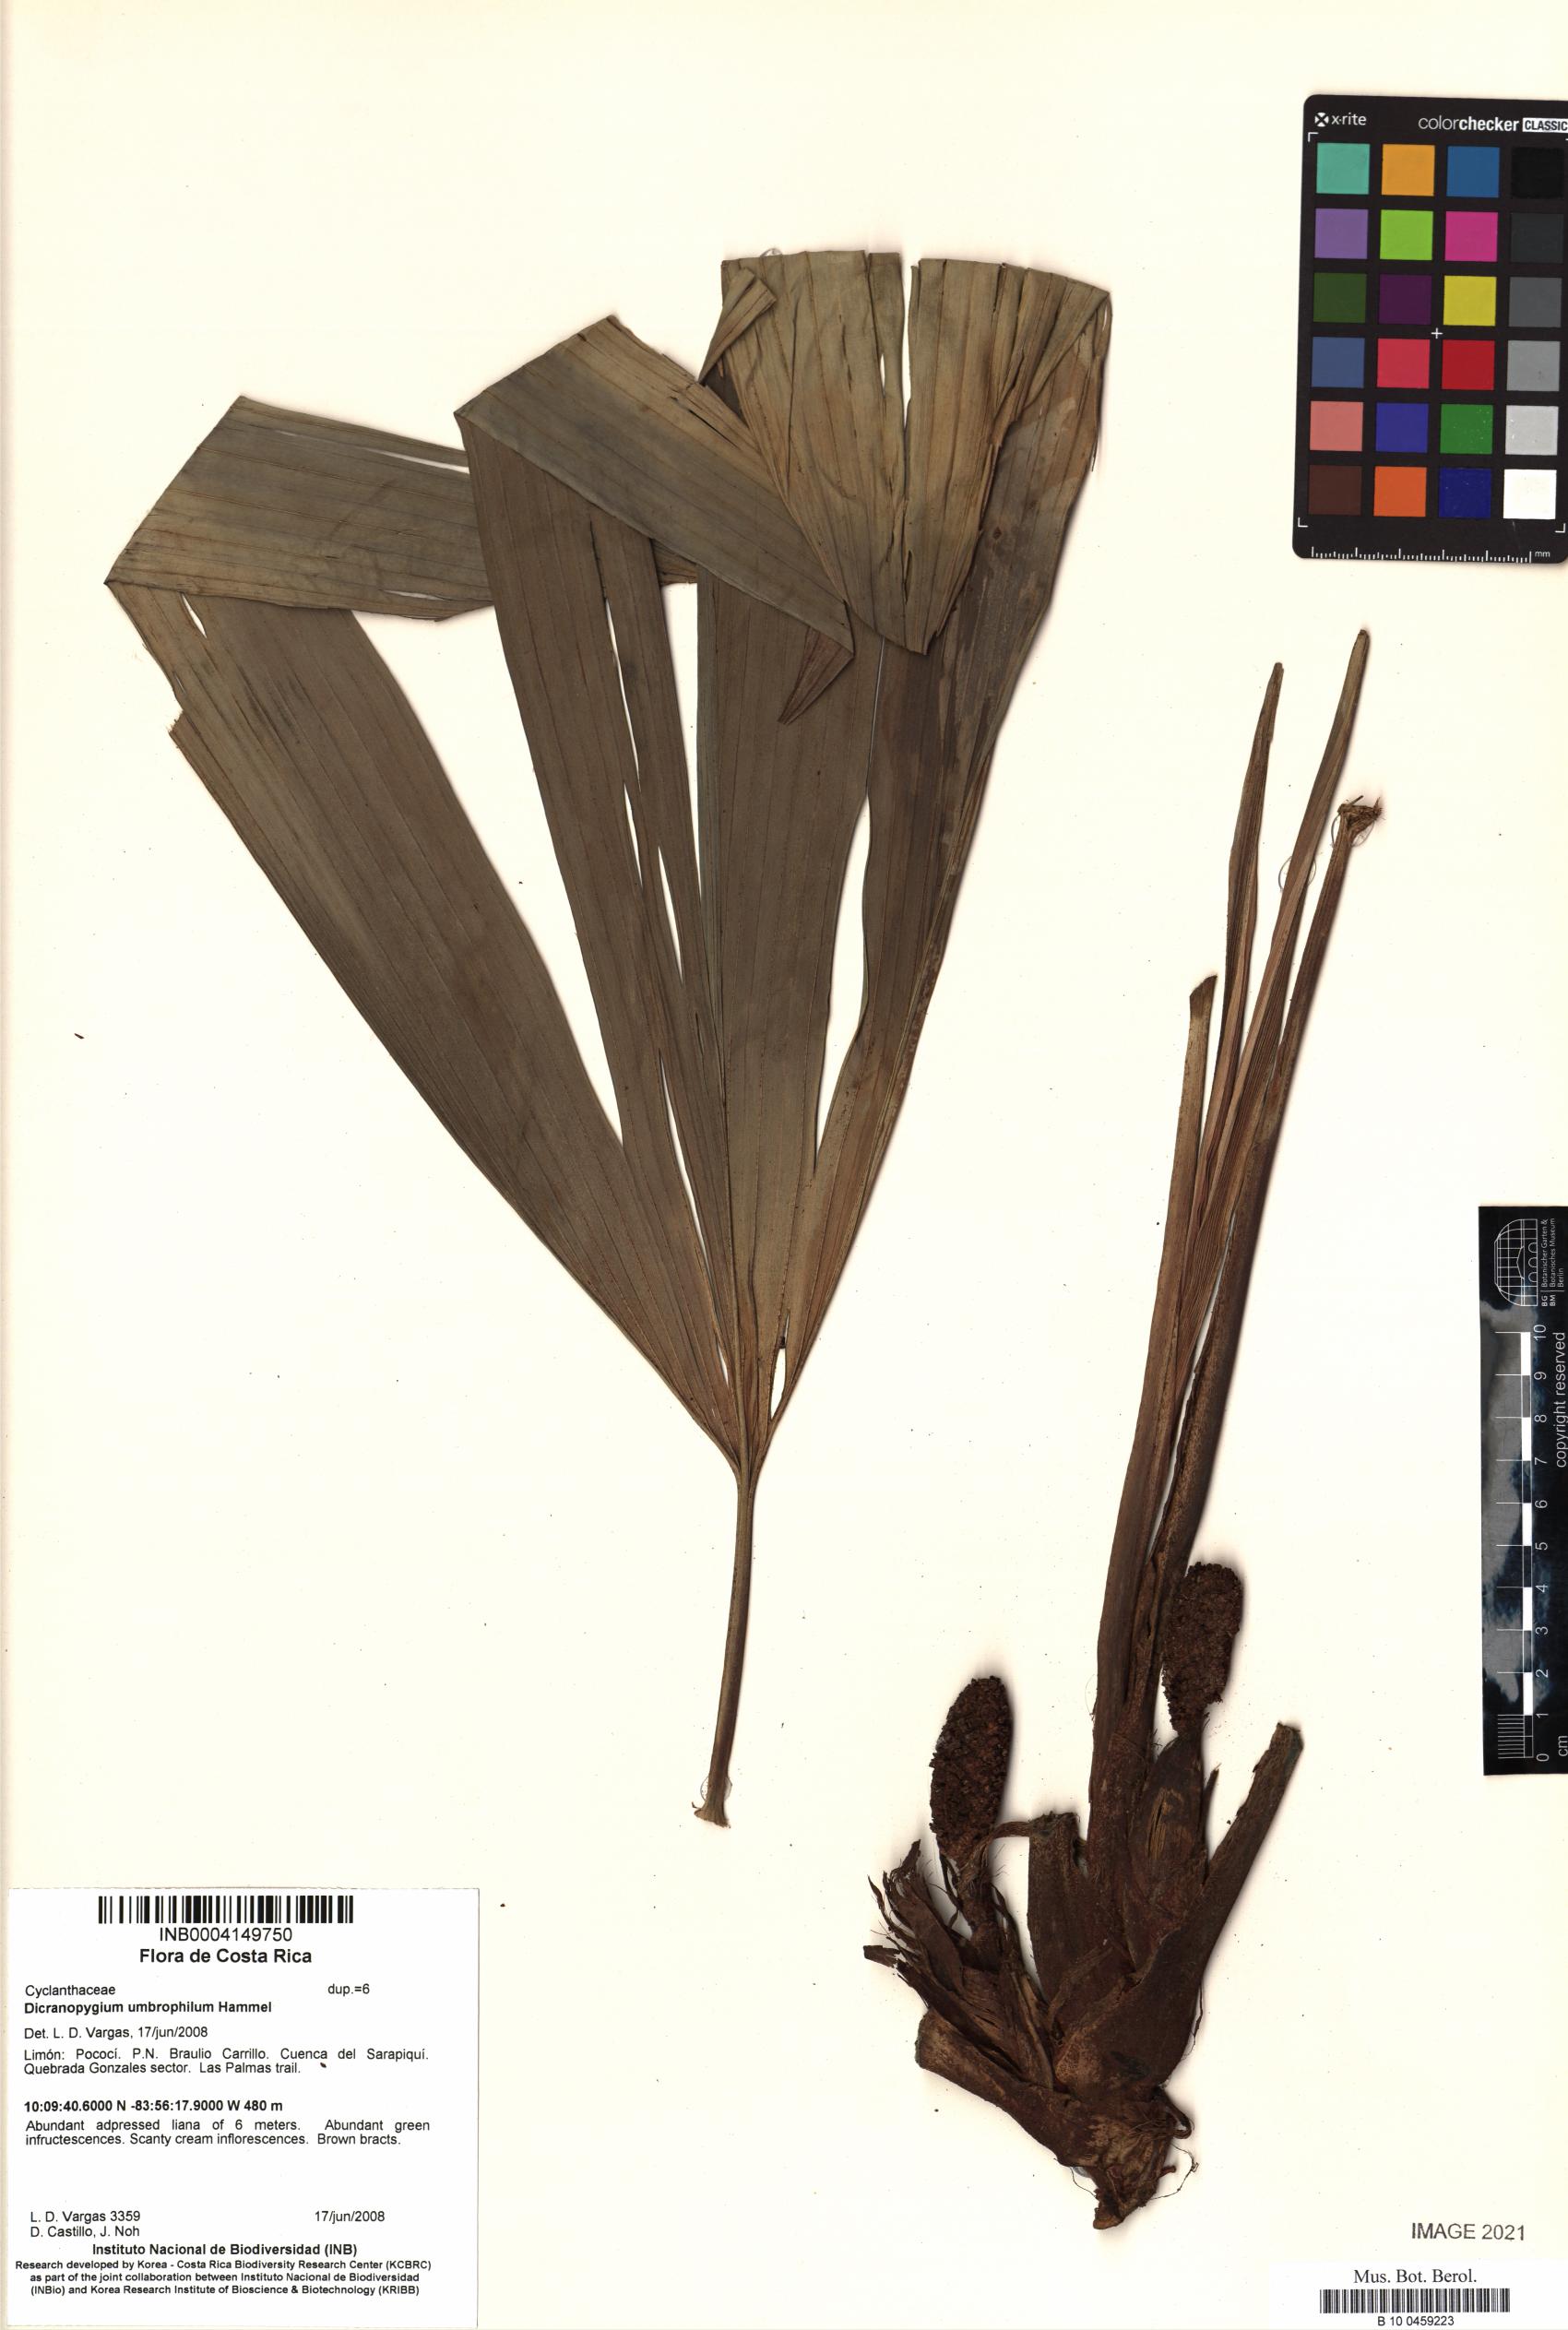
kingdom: Plantae
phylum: Tracheophyta
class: Liliopsida
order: Pandanales
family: Cyclanthaceae
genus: Dicranopygium
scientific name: Dicranopygium umbrophilum
